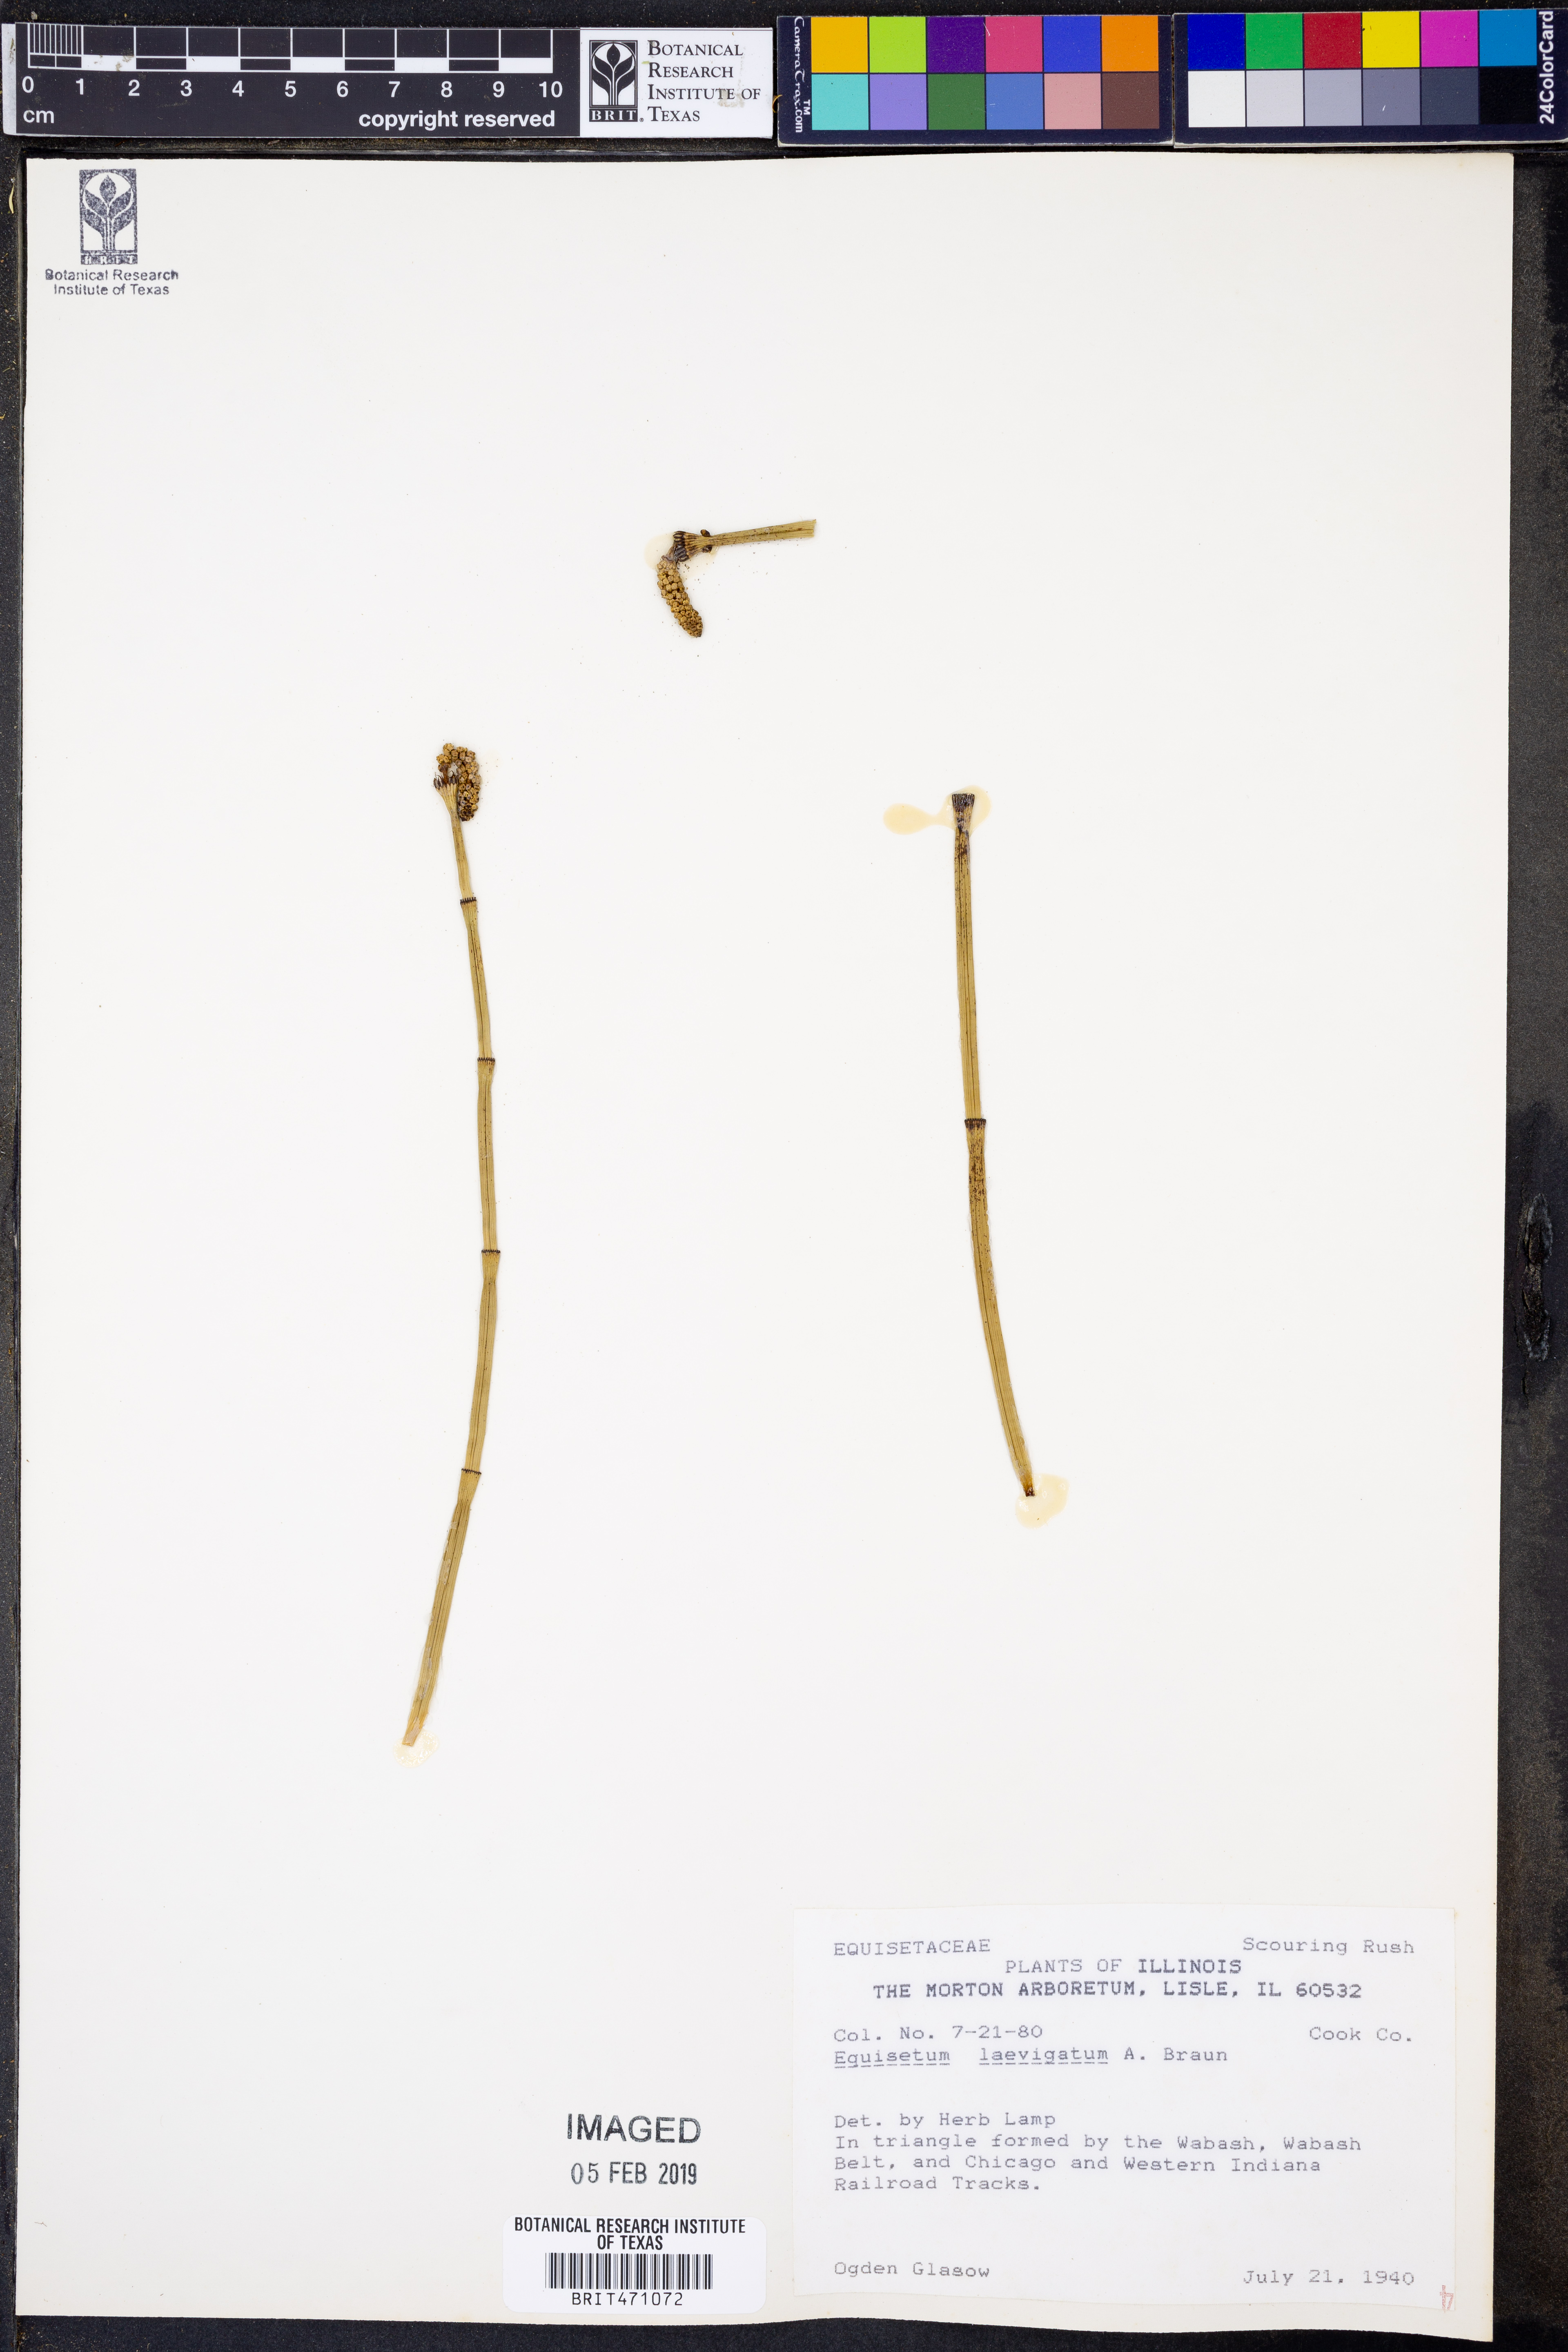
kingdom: Plantae
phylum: Tracheophyta
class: Polypodiopsida
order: Equisetales
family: Equisetaceae
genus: Equisetum
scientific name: Equisetum laevigatum
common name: Smooth scouring-rush
